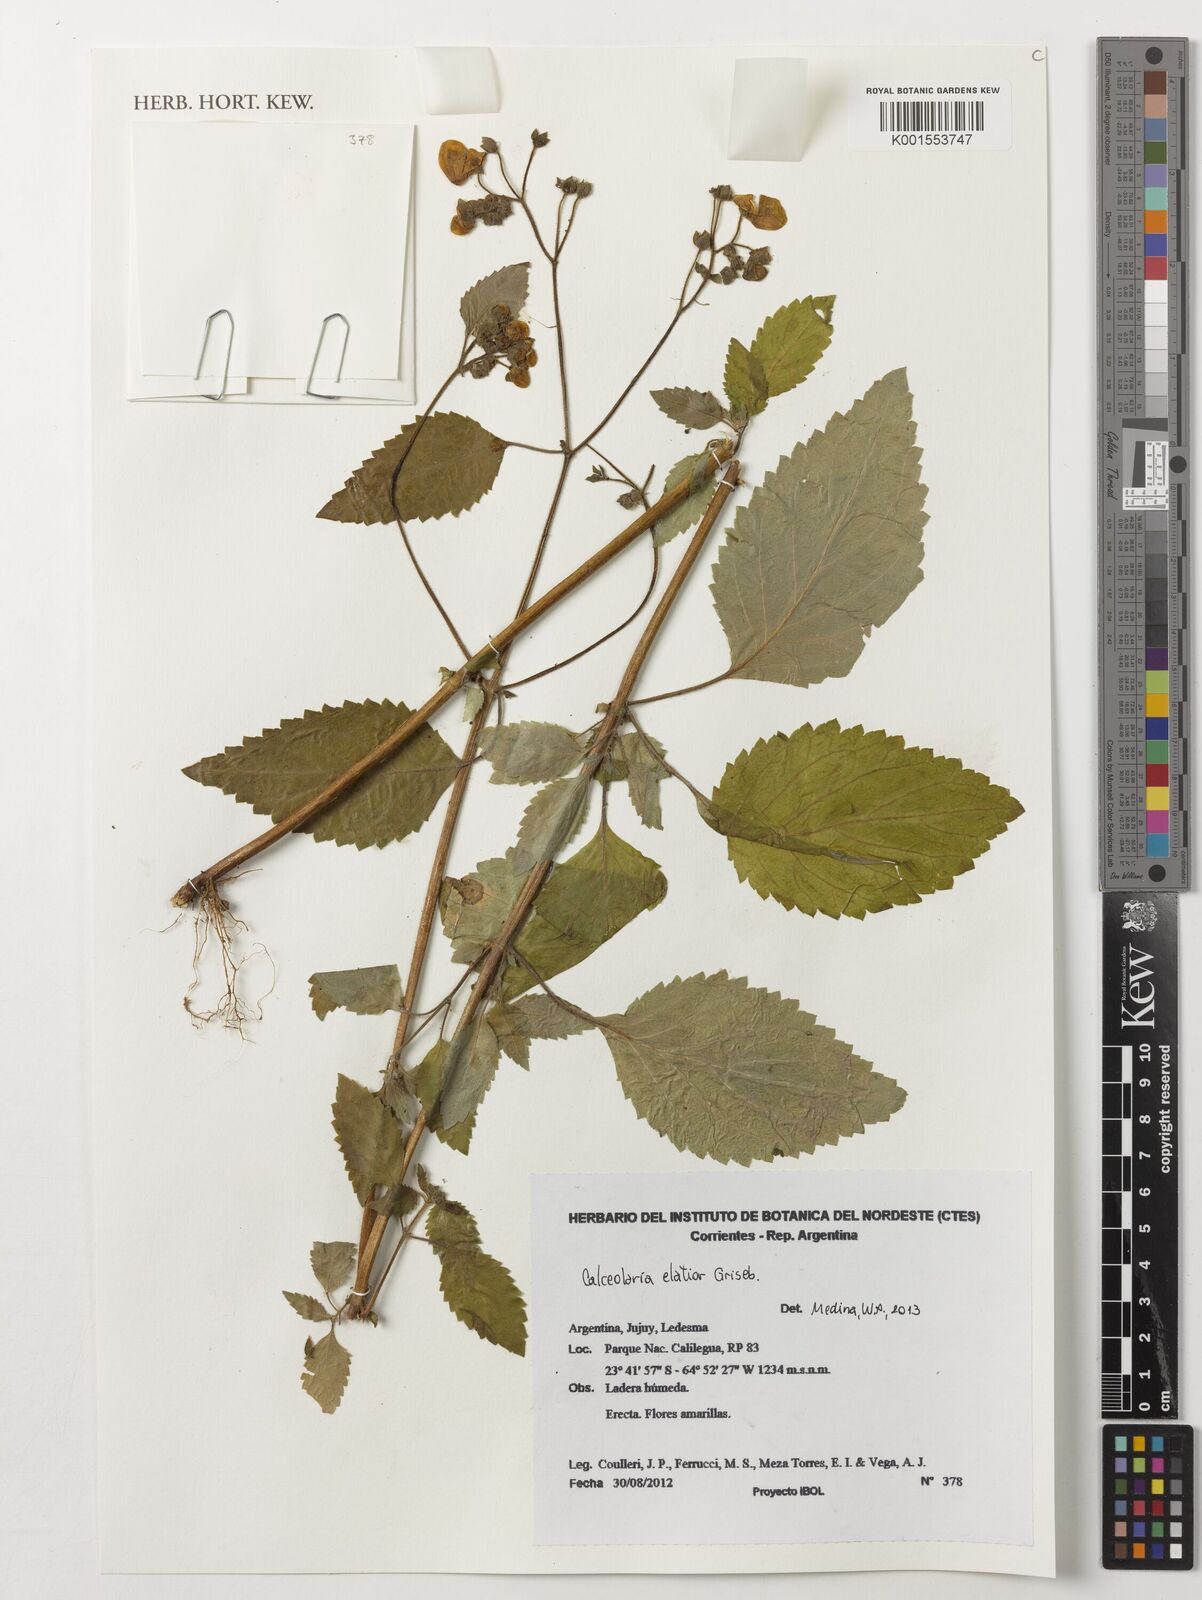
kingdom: Plantae
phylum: Tracheophyta
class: Magnoliopsida
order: Lamiales
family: Calceolariaceae
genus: Calceolaria
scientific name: Calceolaria elatior
